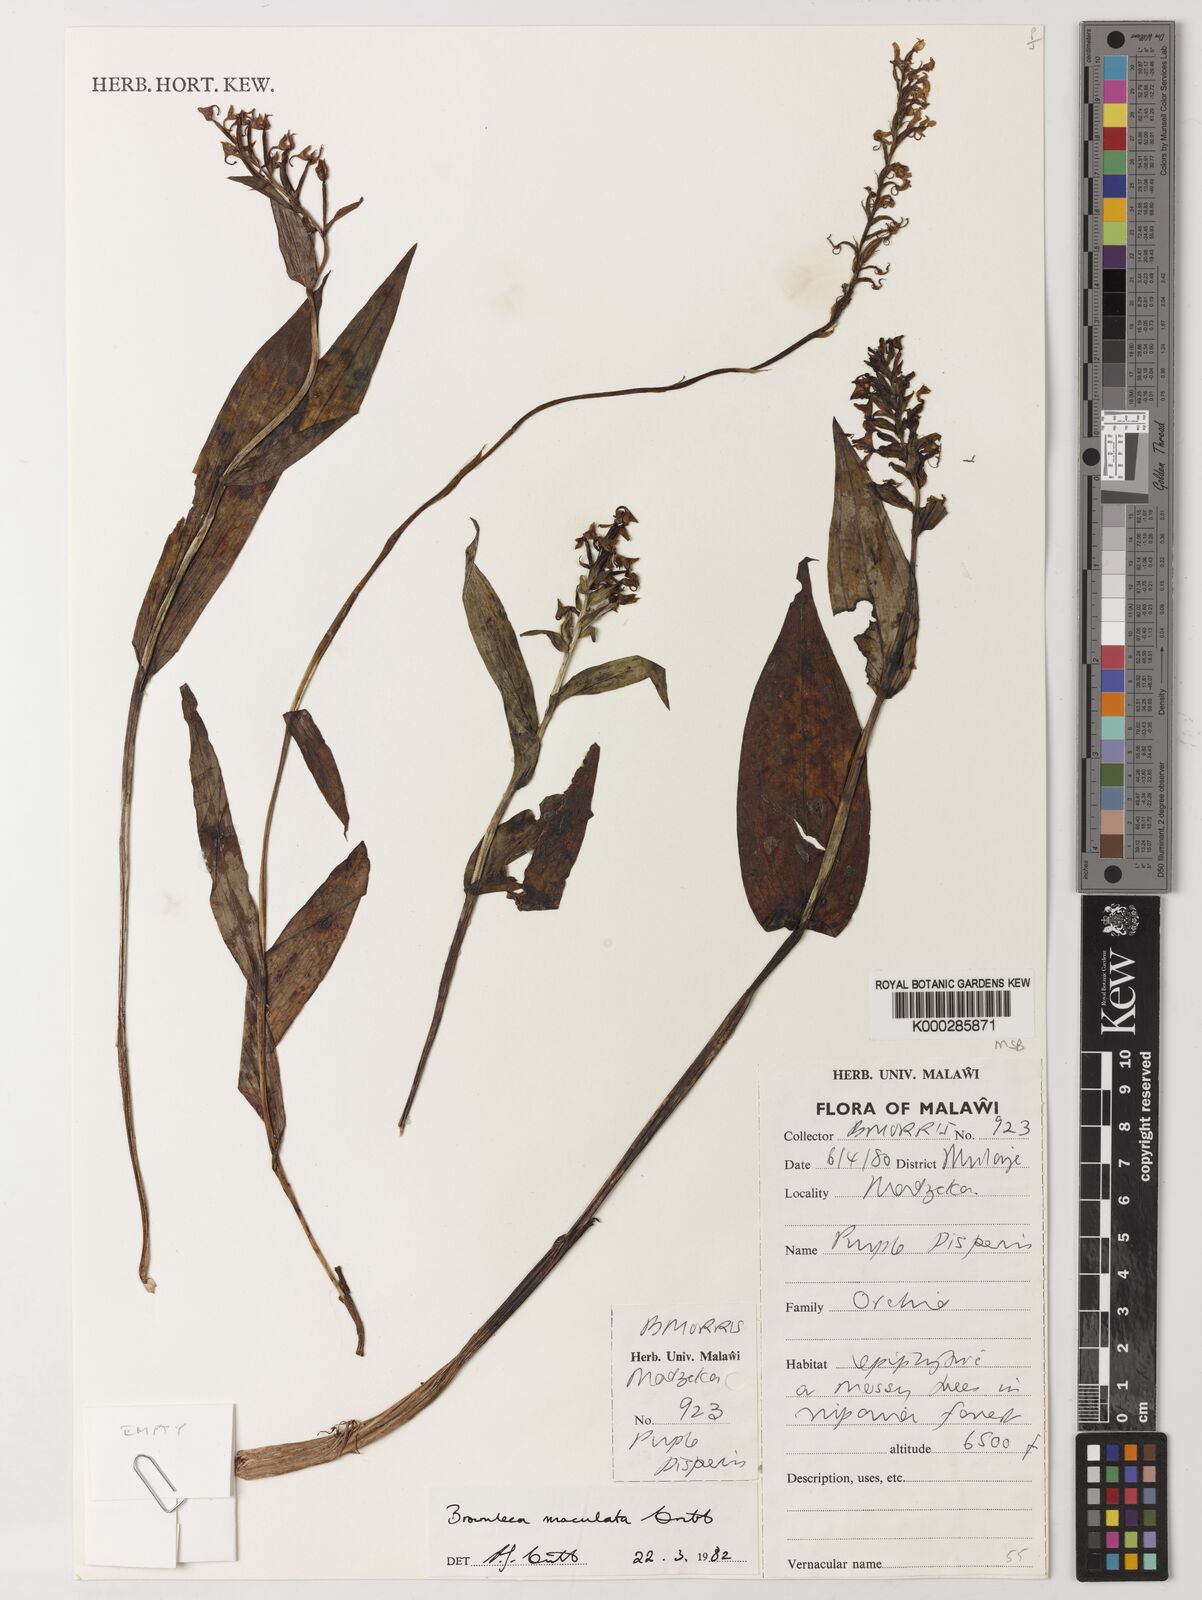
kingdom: Plantae
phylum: Tracheophyta
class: Liliopsida
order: Asparagales
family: Orchidaceae
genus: Brownleea
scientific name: Brownleea maculata
